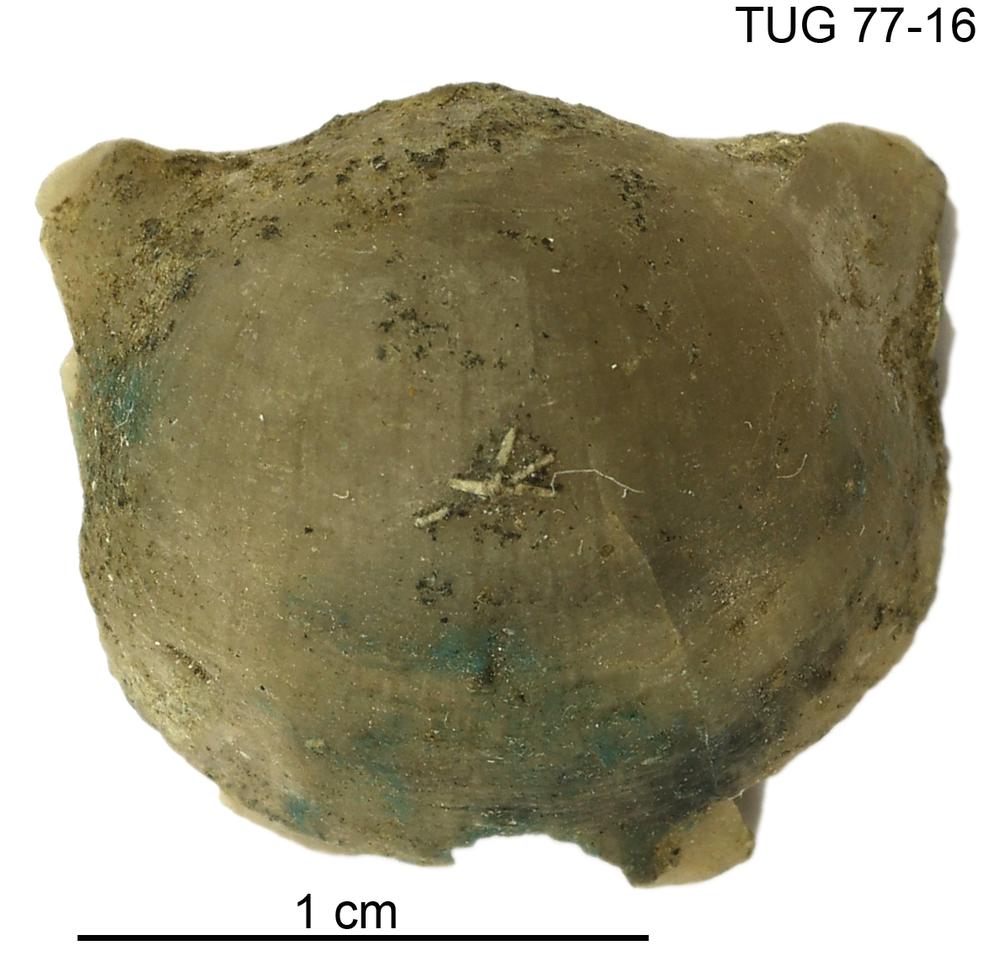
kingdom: Animalia
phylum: Brachiopoda
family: Strophomenidae
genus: Bekkerina
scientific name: Bekkerina Haljalanites assatkini
